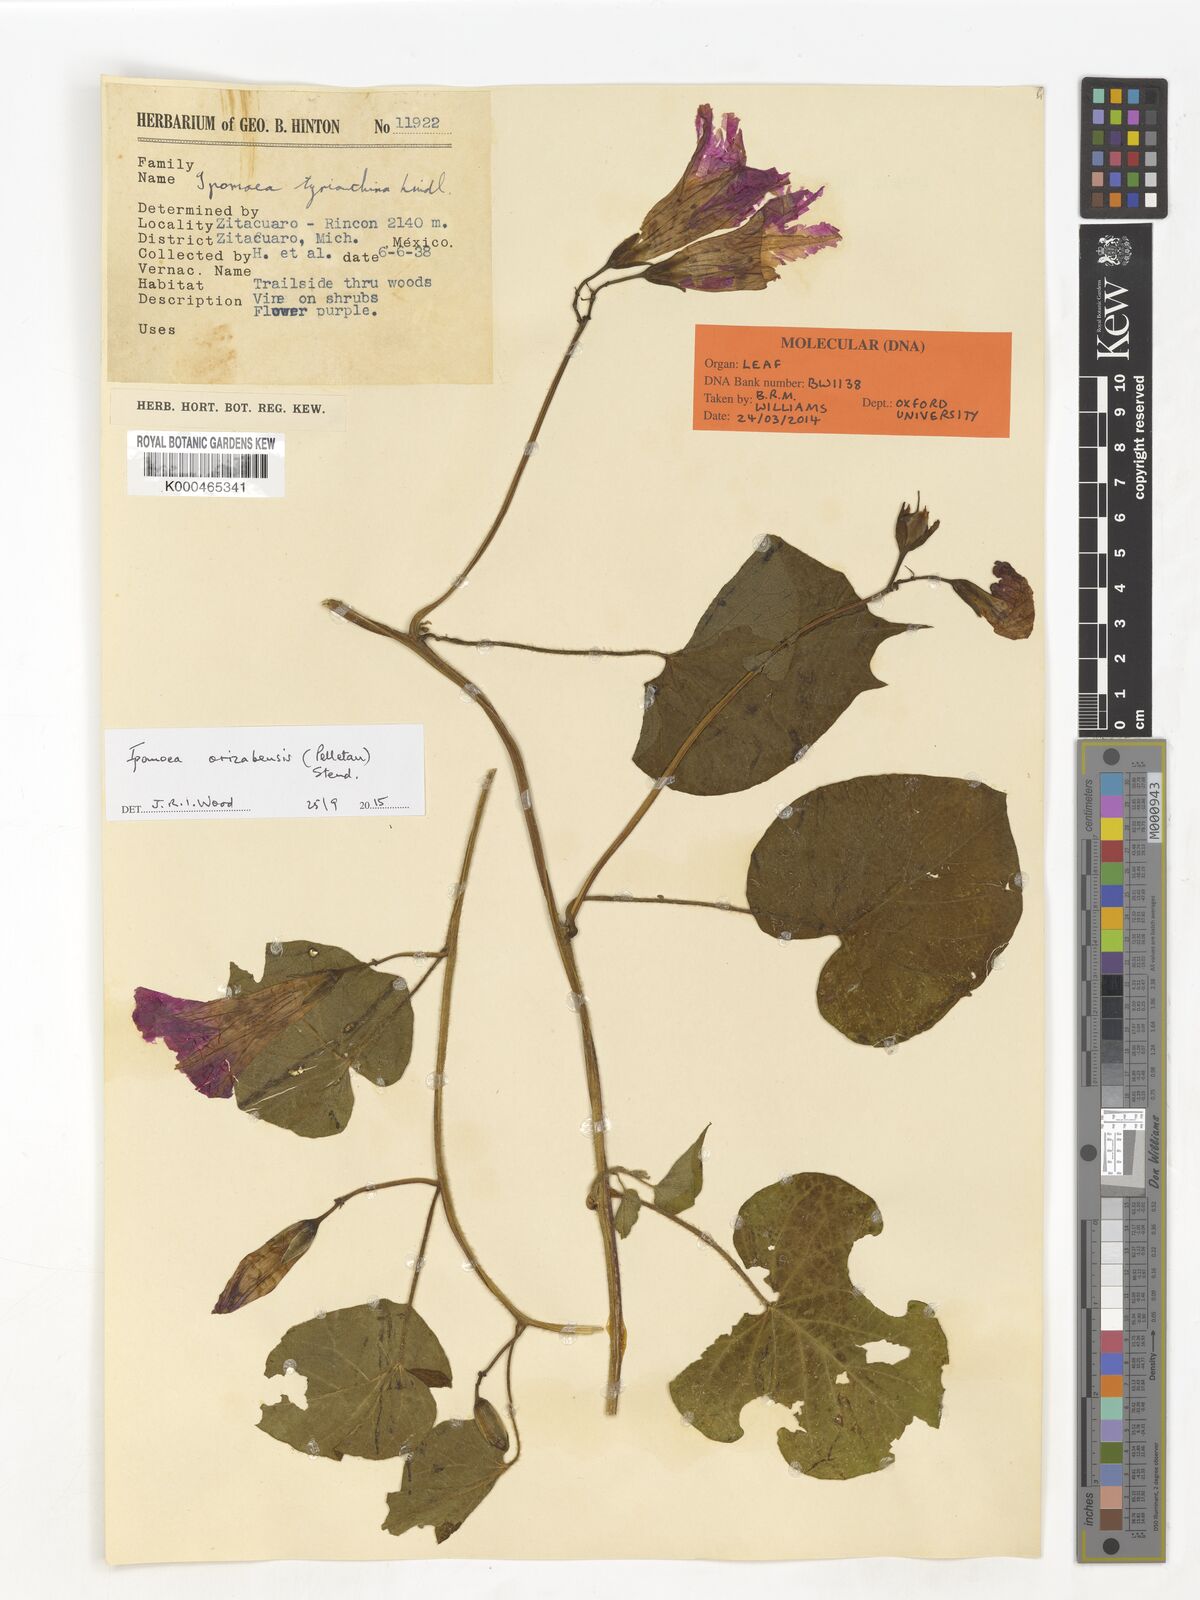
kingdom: Plantae
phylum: Tracheophyta
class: Magnoliopsida
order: Solanales
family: Convolvulaceae
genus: Ipomoea
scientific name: Ipomoea orizabensis
